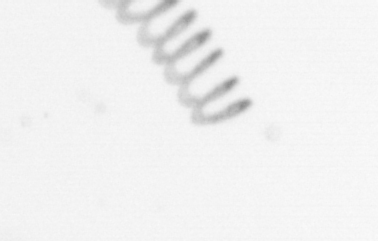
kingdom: Chromista
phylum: Ochrophyta
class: Bacillariophyceae
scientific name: Bacillariophyceae
